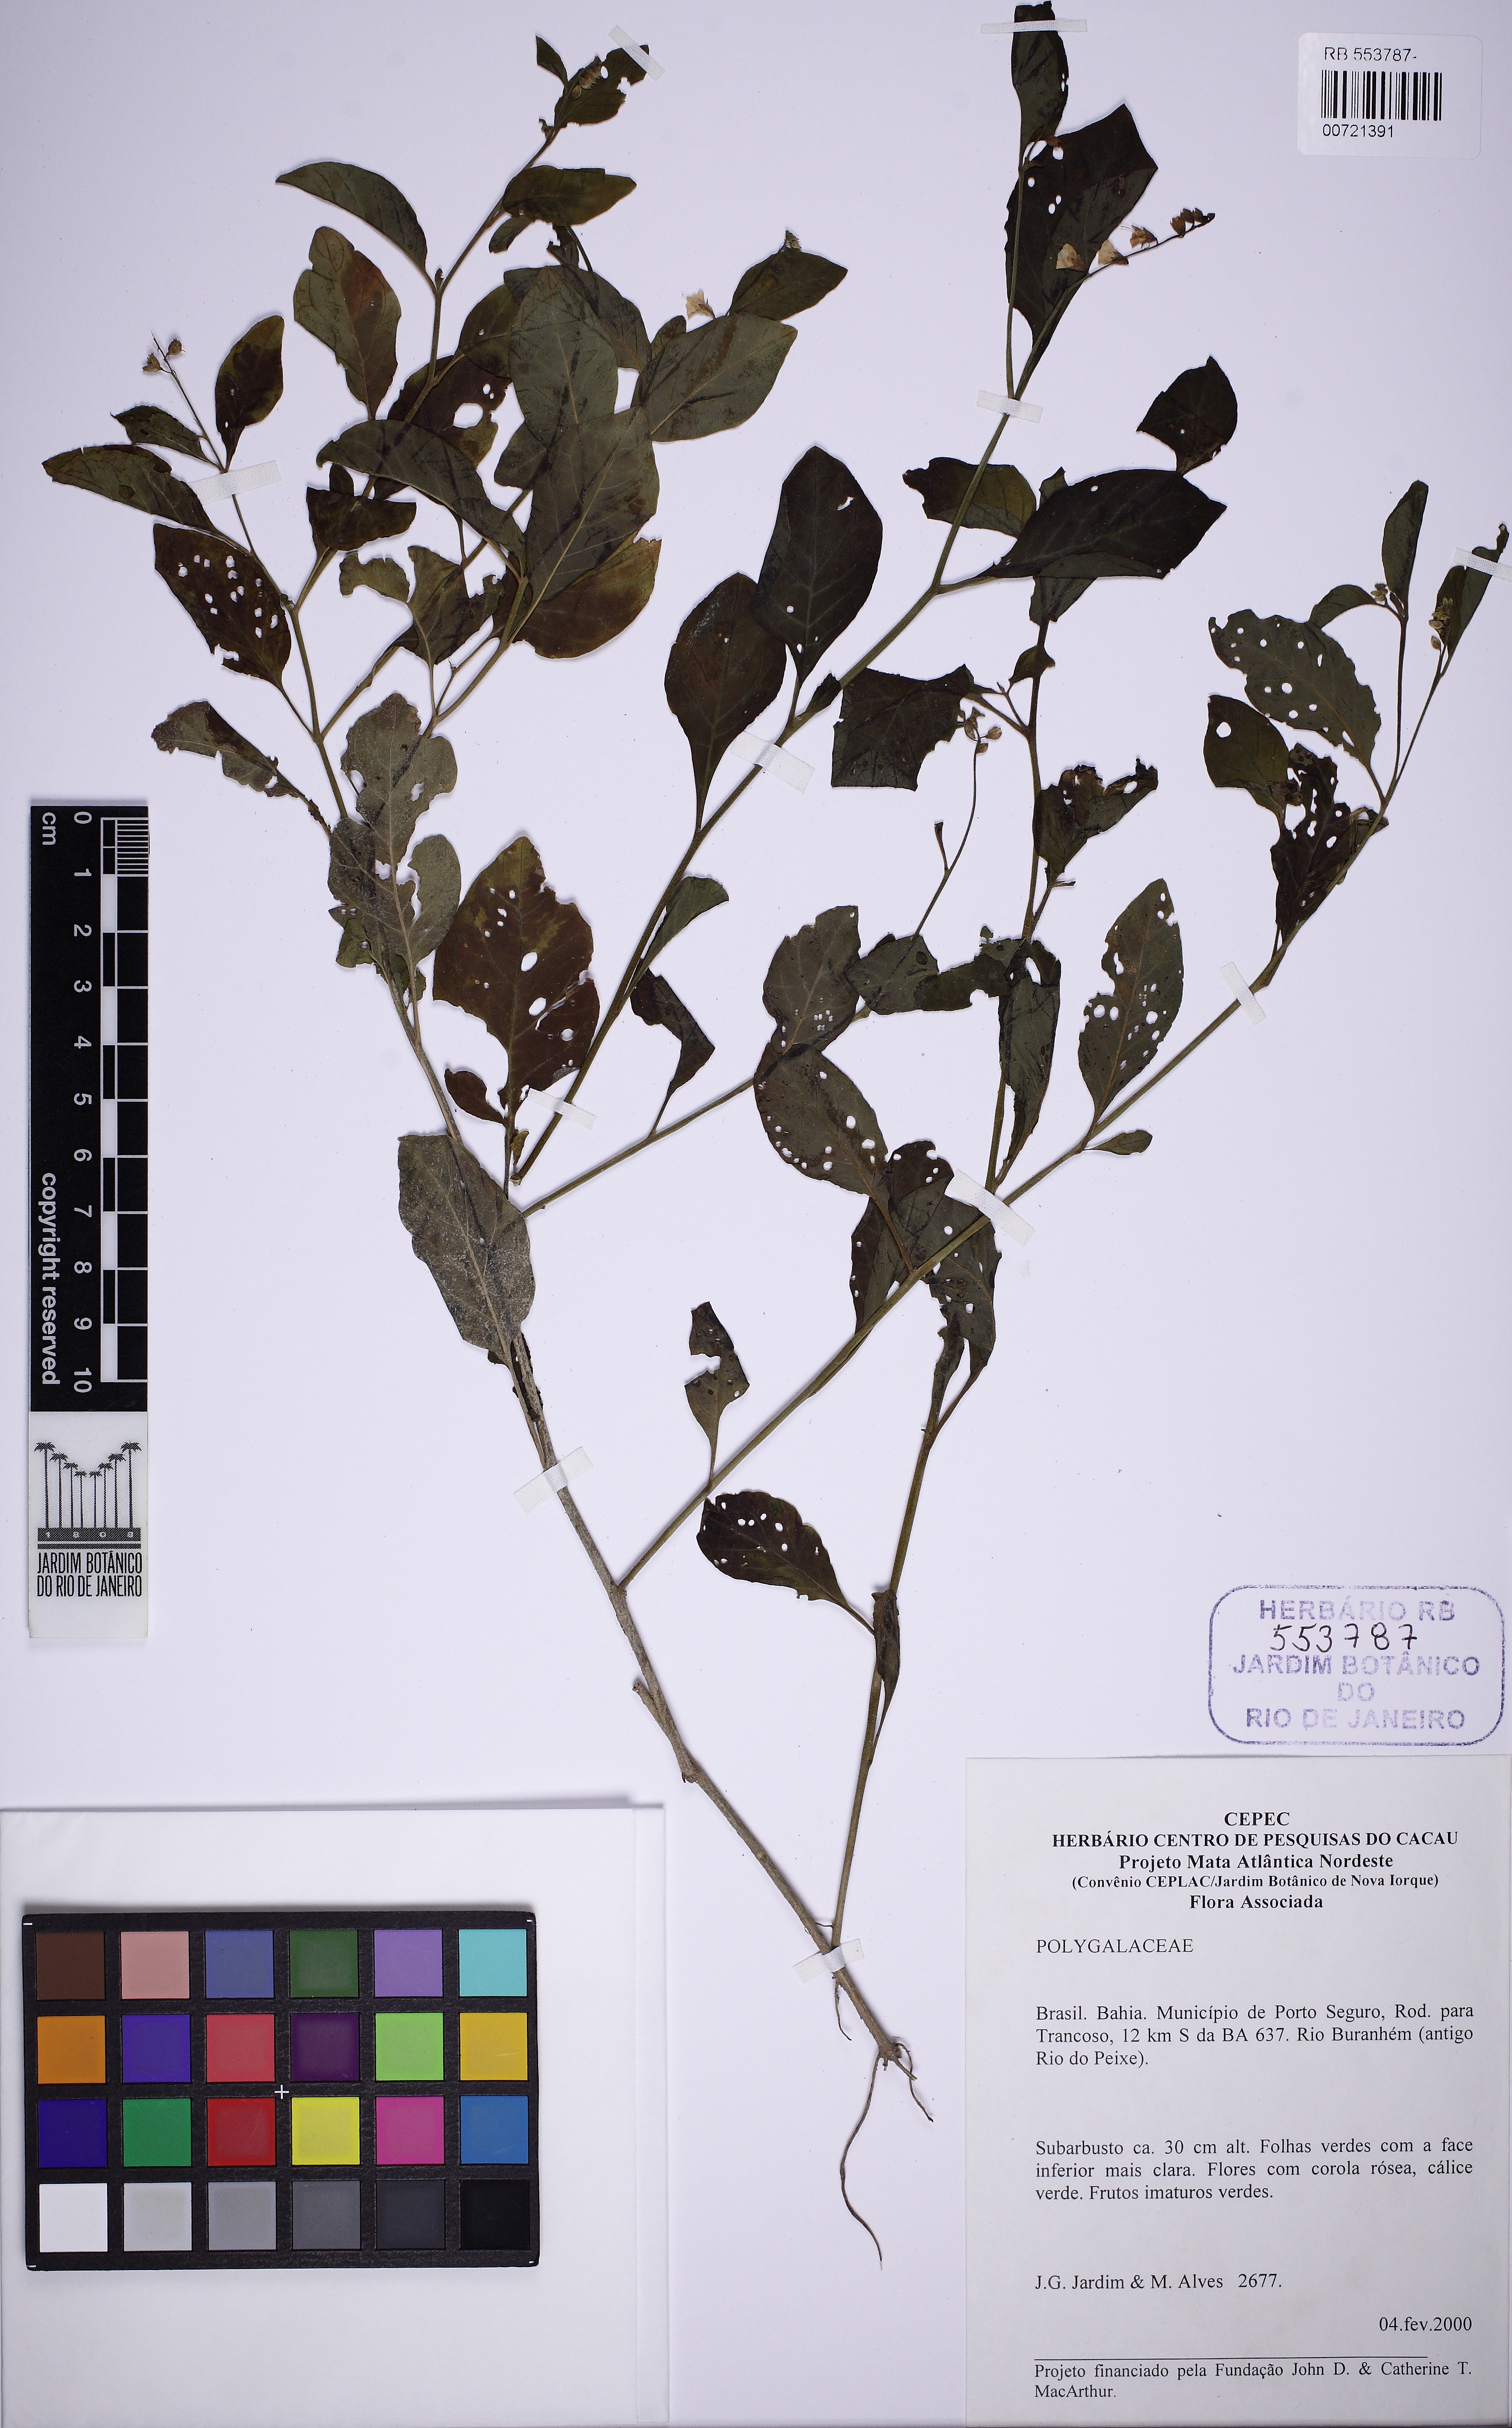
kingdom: Plantae
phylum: Tracheophyta
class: Magnoliopsida
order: Solanales
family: Solanaceae
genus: Heteranthia
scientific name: Heteranthia
